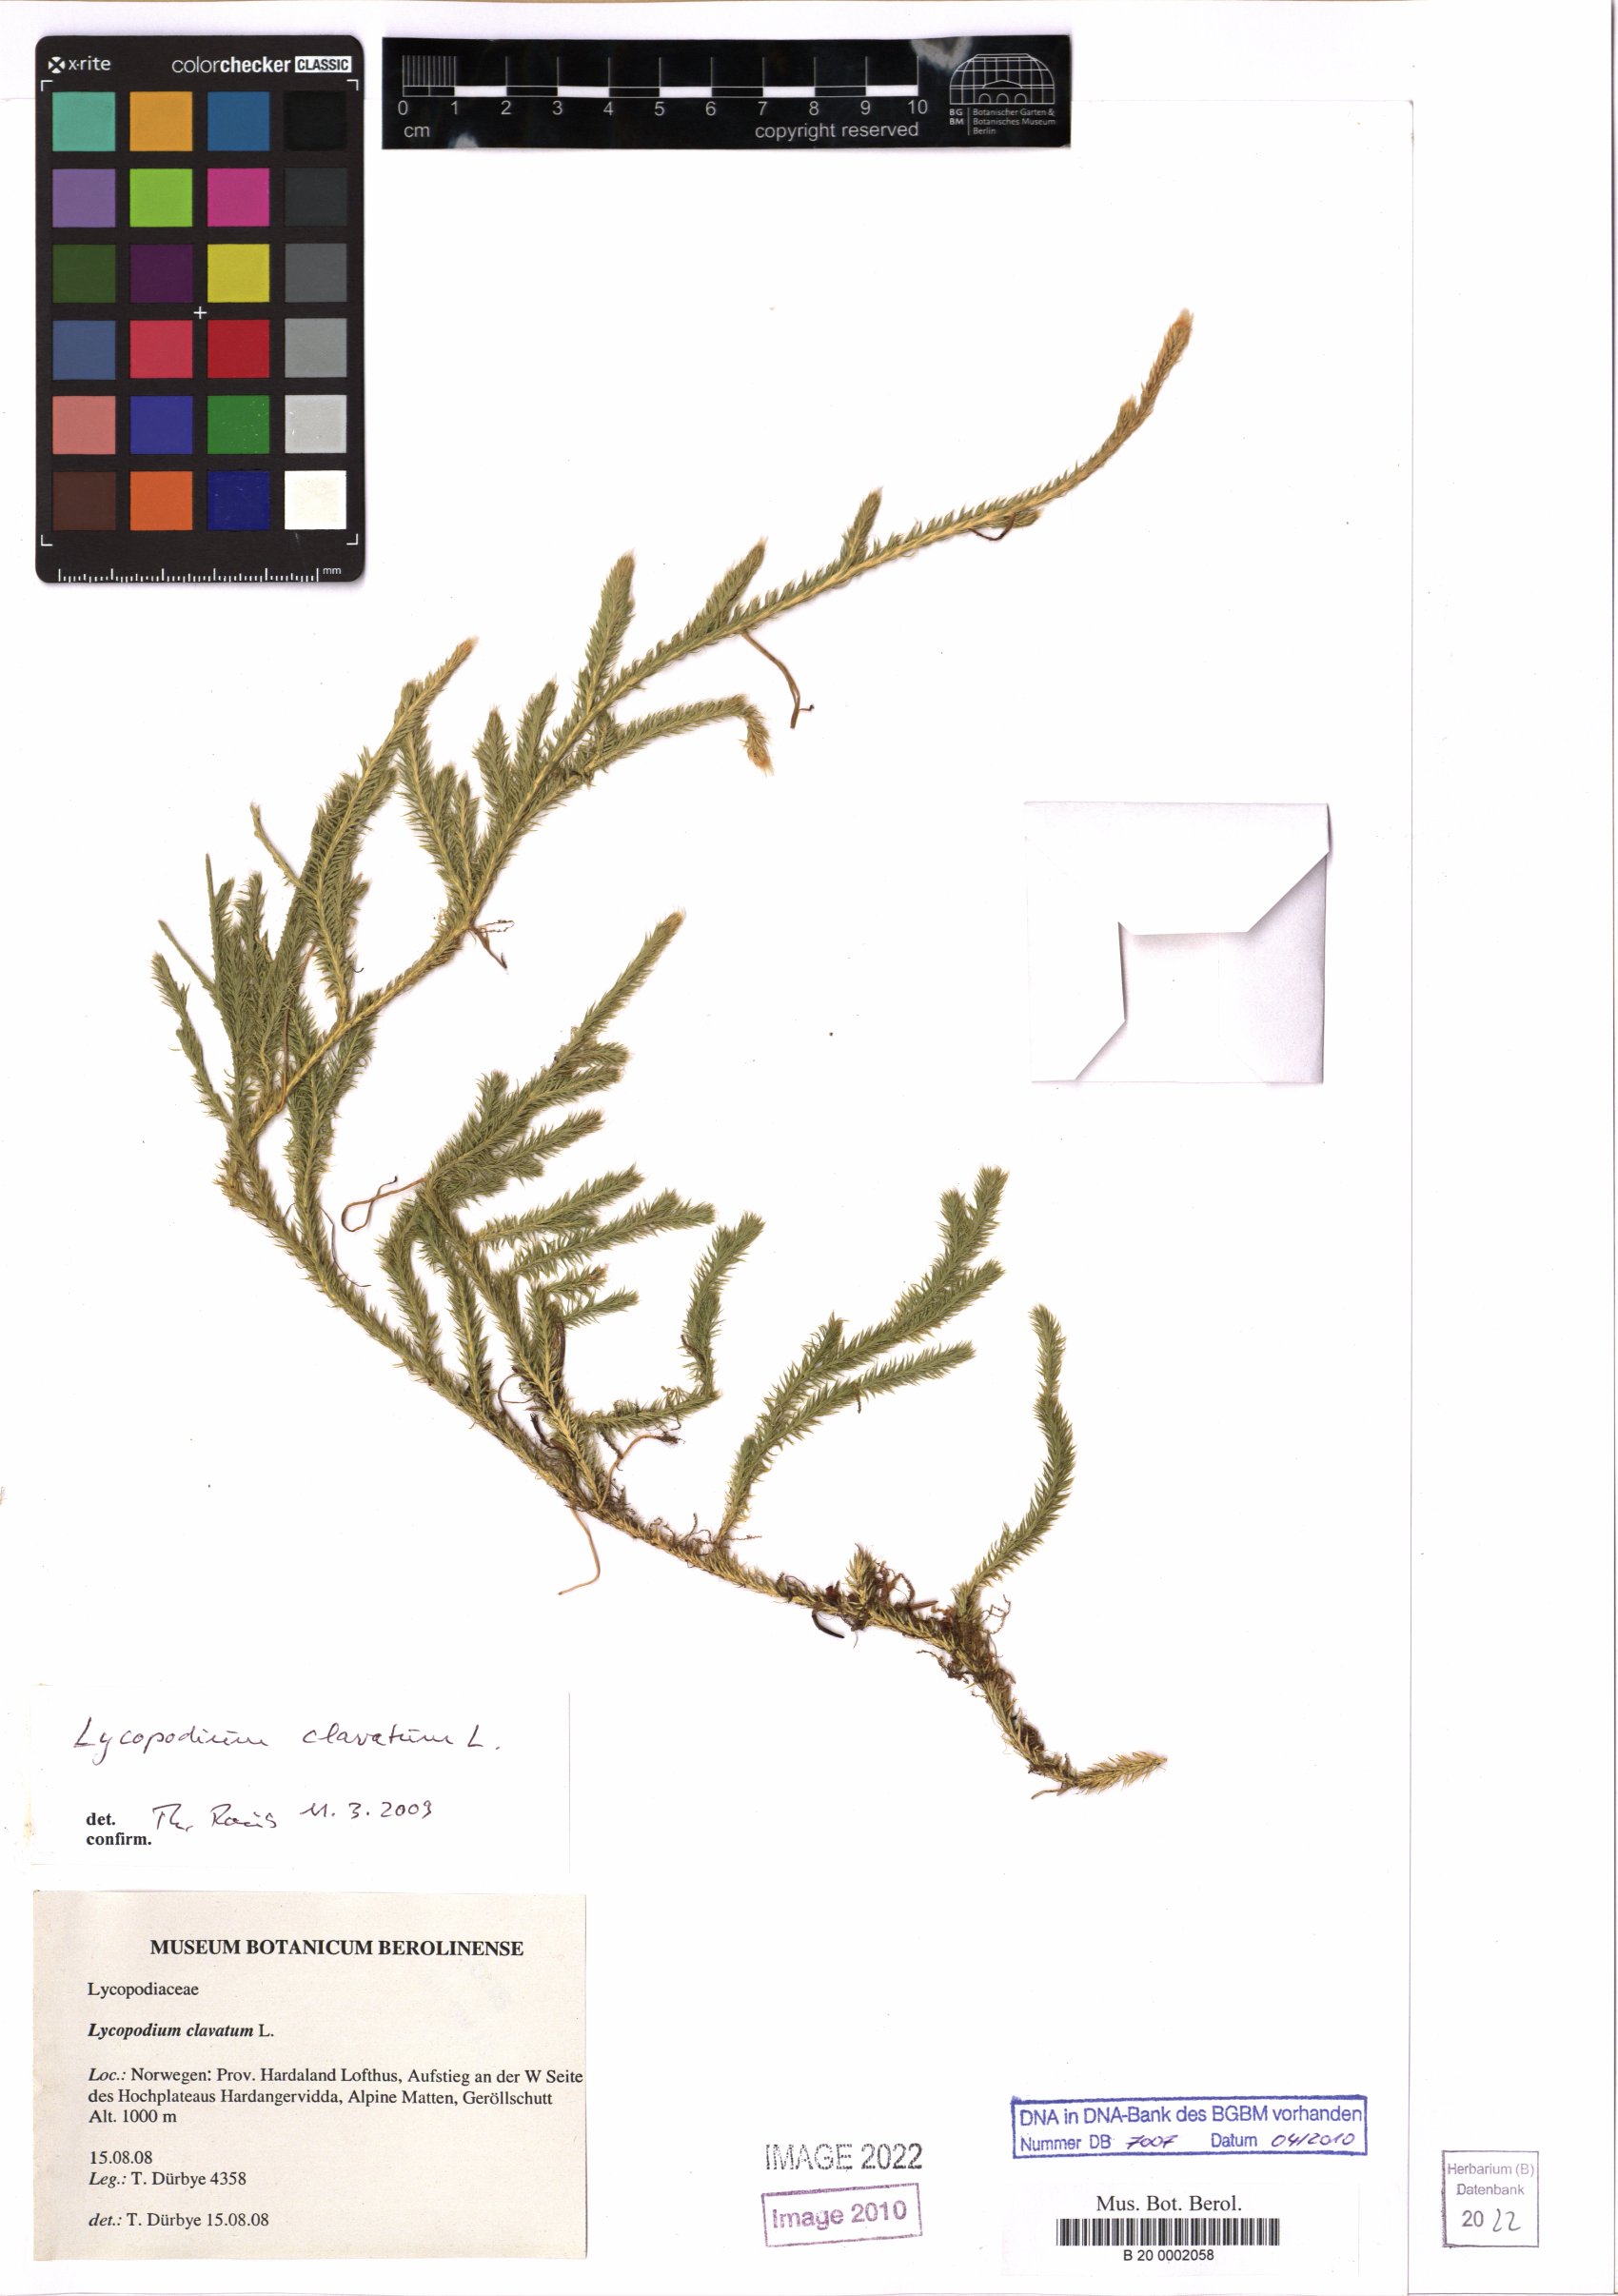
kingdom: Plantae
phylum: Tracheophyta
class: Lycopodiopsida
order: Lycopodiales
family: Lycopodiaceae
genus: Lycopodium
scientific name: Lycopodium clavatum
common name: Stag's-horn clubmoss
